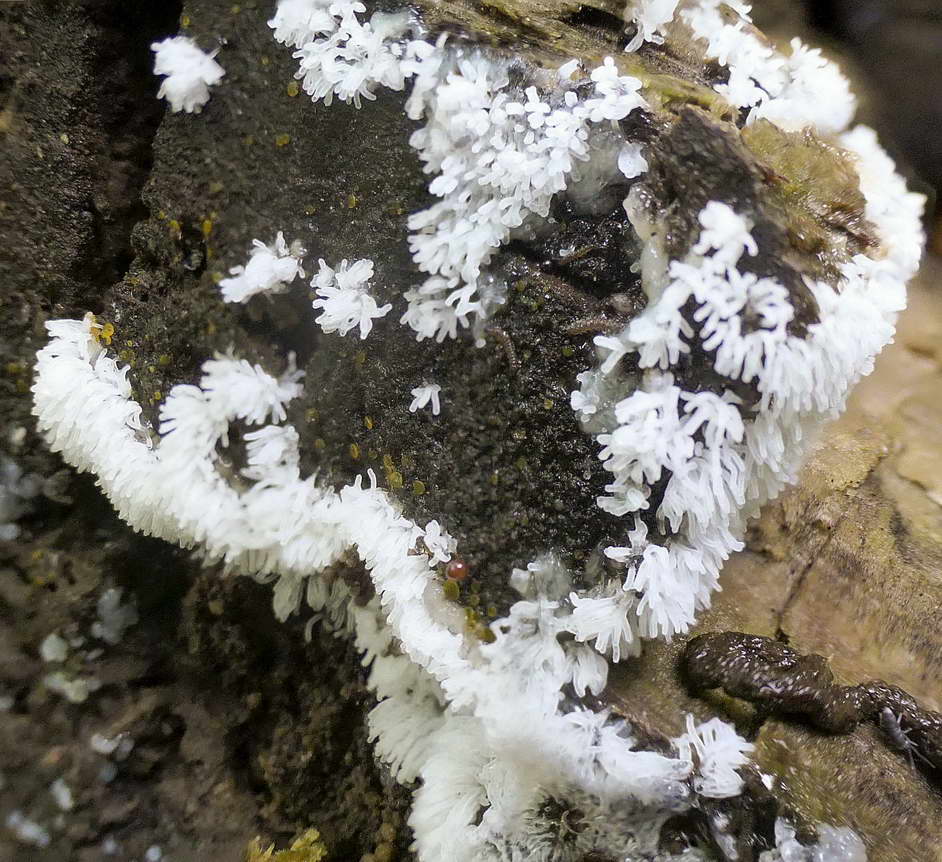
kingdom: Protozoa
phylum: Mycetozoa
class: Protosteliomycetes
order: Ceratiomyxales
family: Ceratiomyxaceae
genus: Ceratiomyxa
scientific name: Ceratiomyxa fruticulosa
